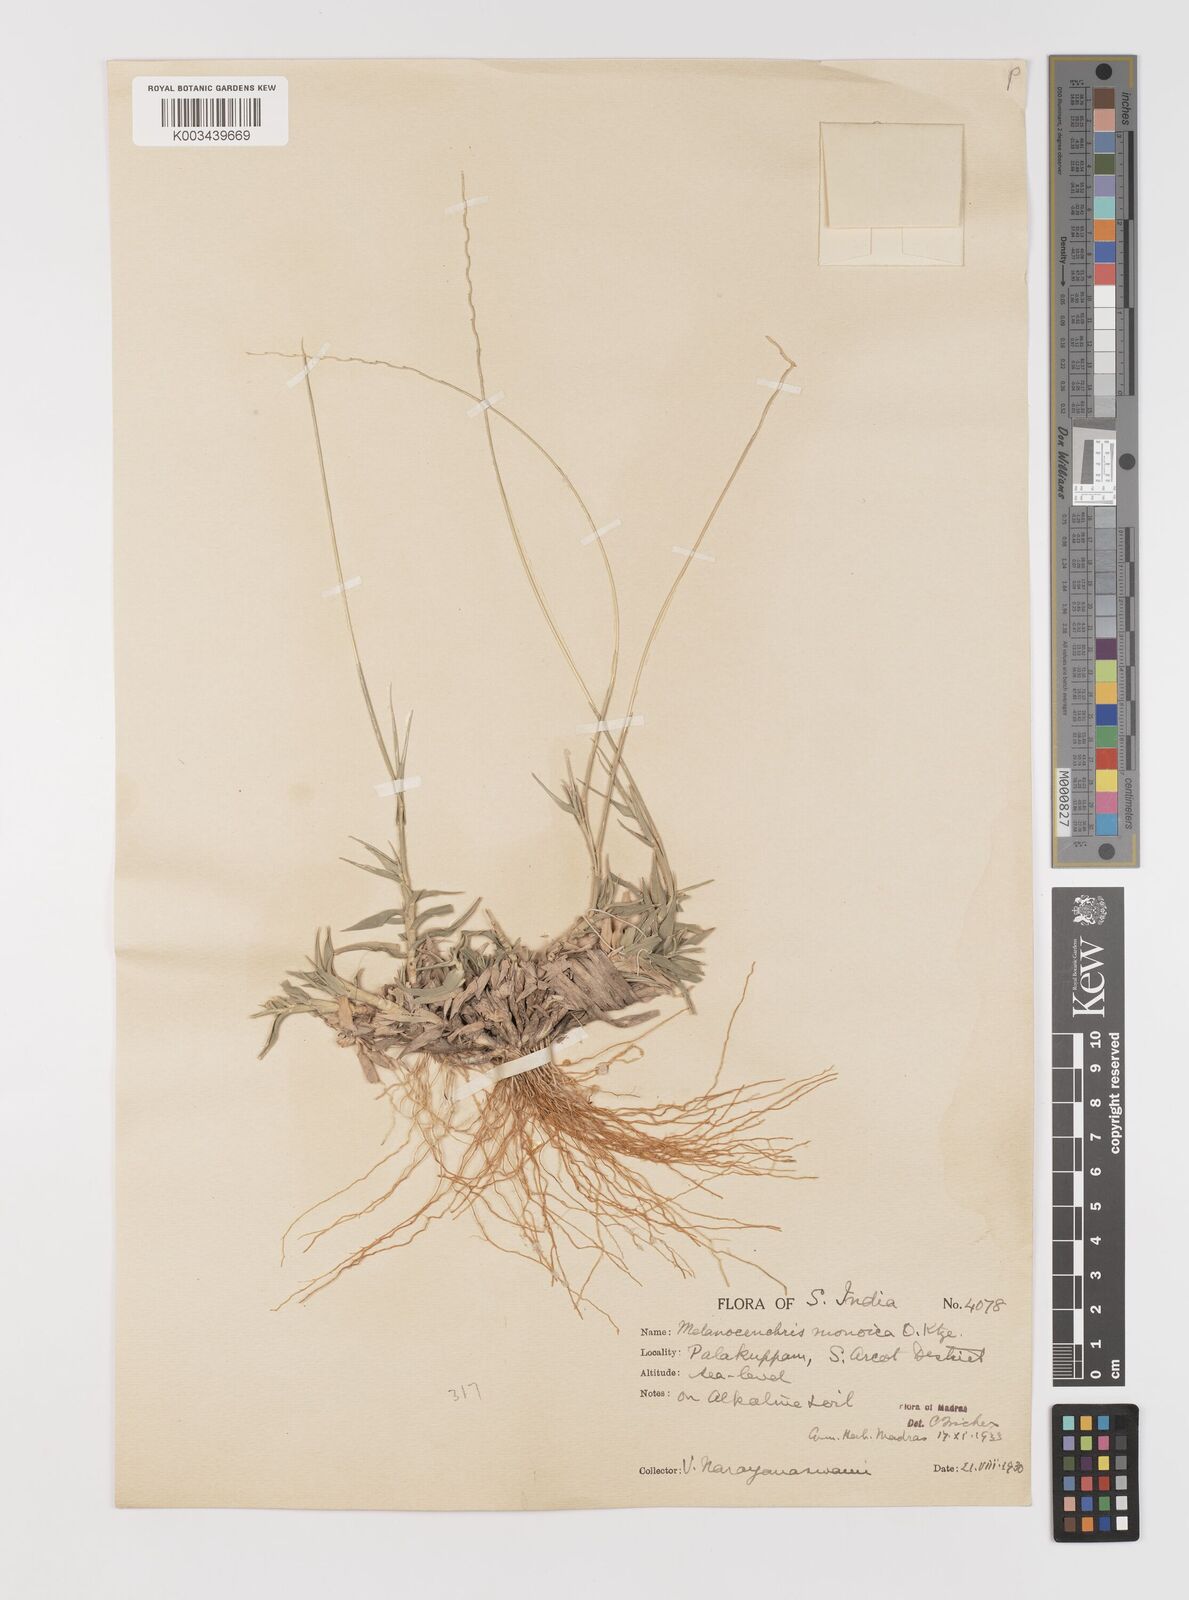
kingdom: Plantae
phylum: Tracheophyta
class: Liliopsida
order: Poales
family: Poaceae
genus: Melanocenchris
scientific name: Melanocenchris rothiana
